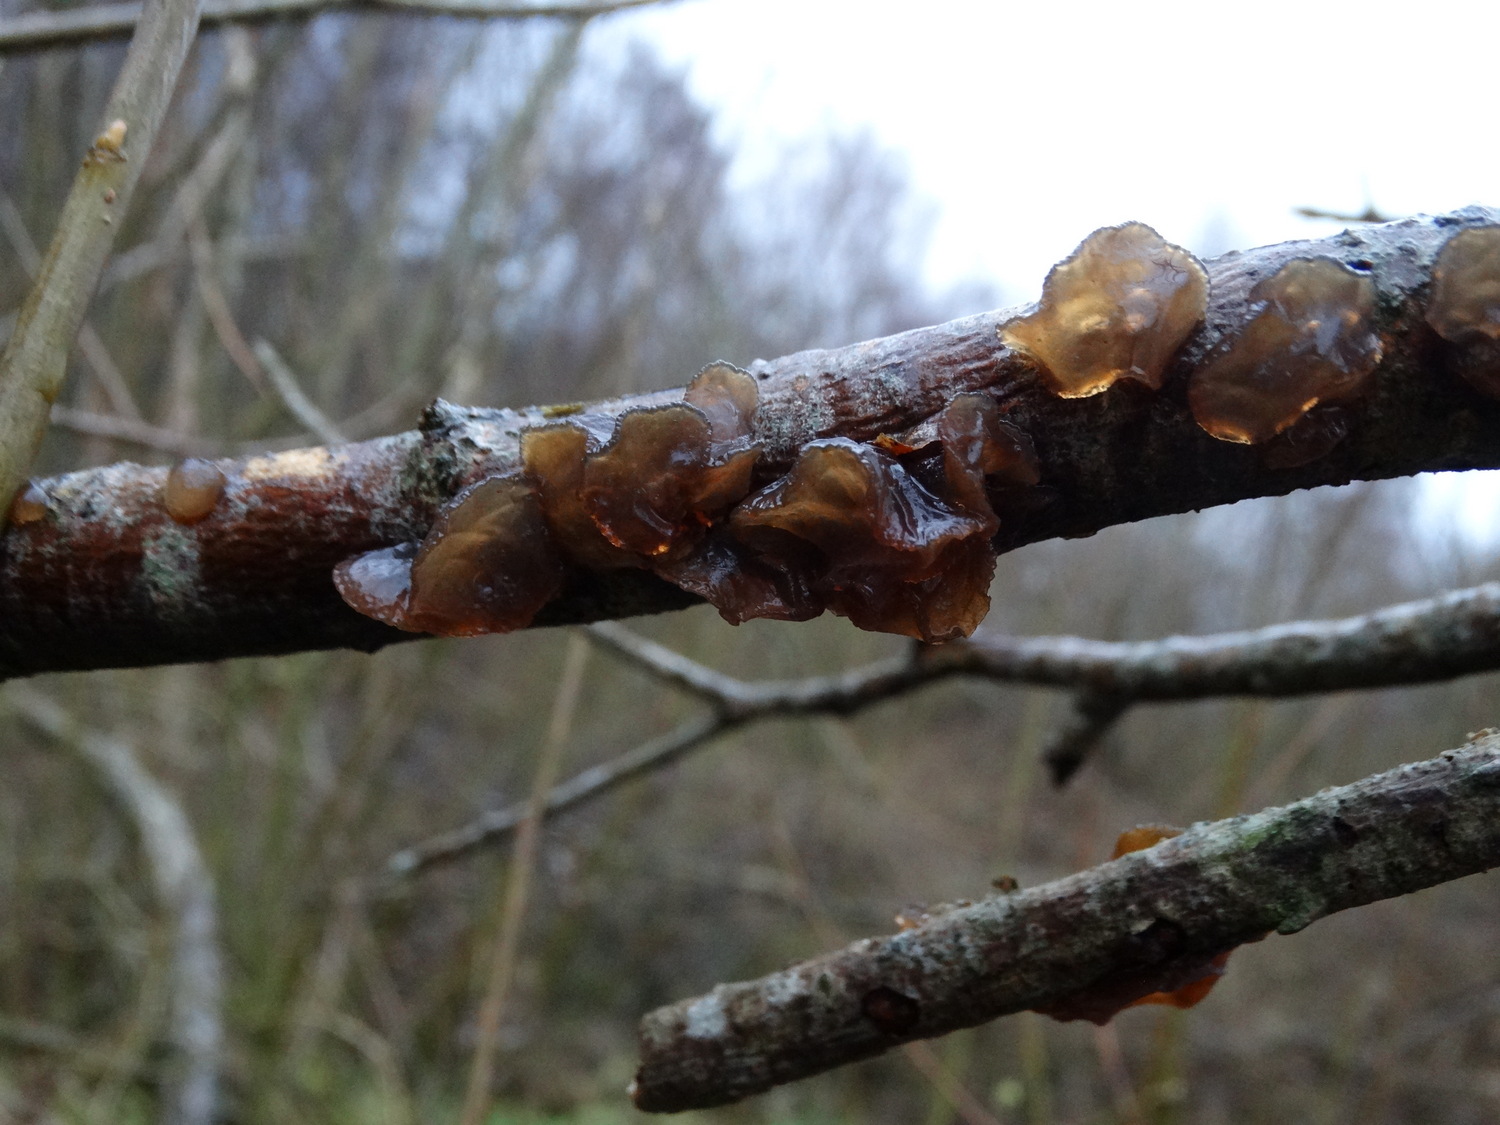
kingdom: Fungi
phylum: Basidiomycota
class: Agaricomycetes
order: Auriculariales
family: Auriculariaceae
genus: Exidia
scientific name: Exidia recisa
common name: pile-bævretop
